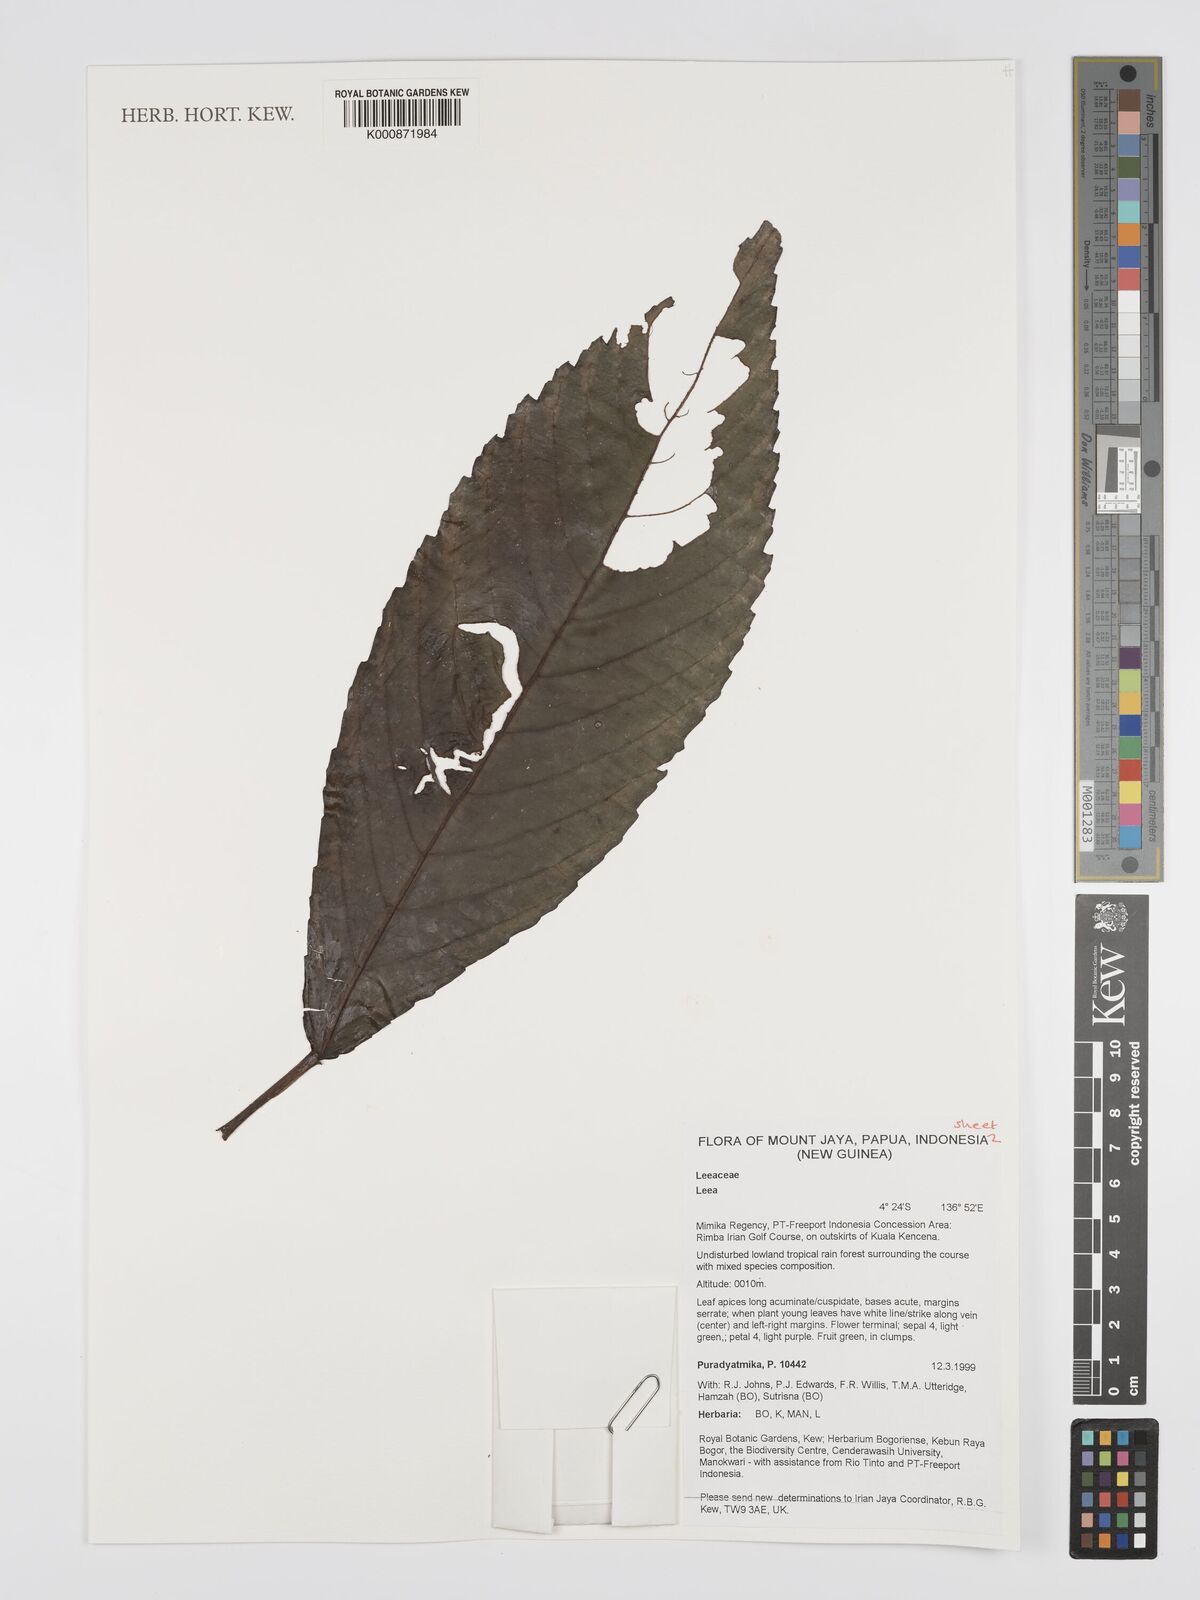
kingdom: Plantae
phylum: Tracheophyta
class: Magnoliopsida
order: Vitales
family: Vitaceae
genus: Leea
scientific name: Leea
